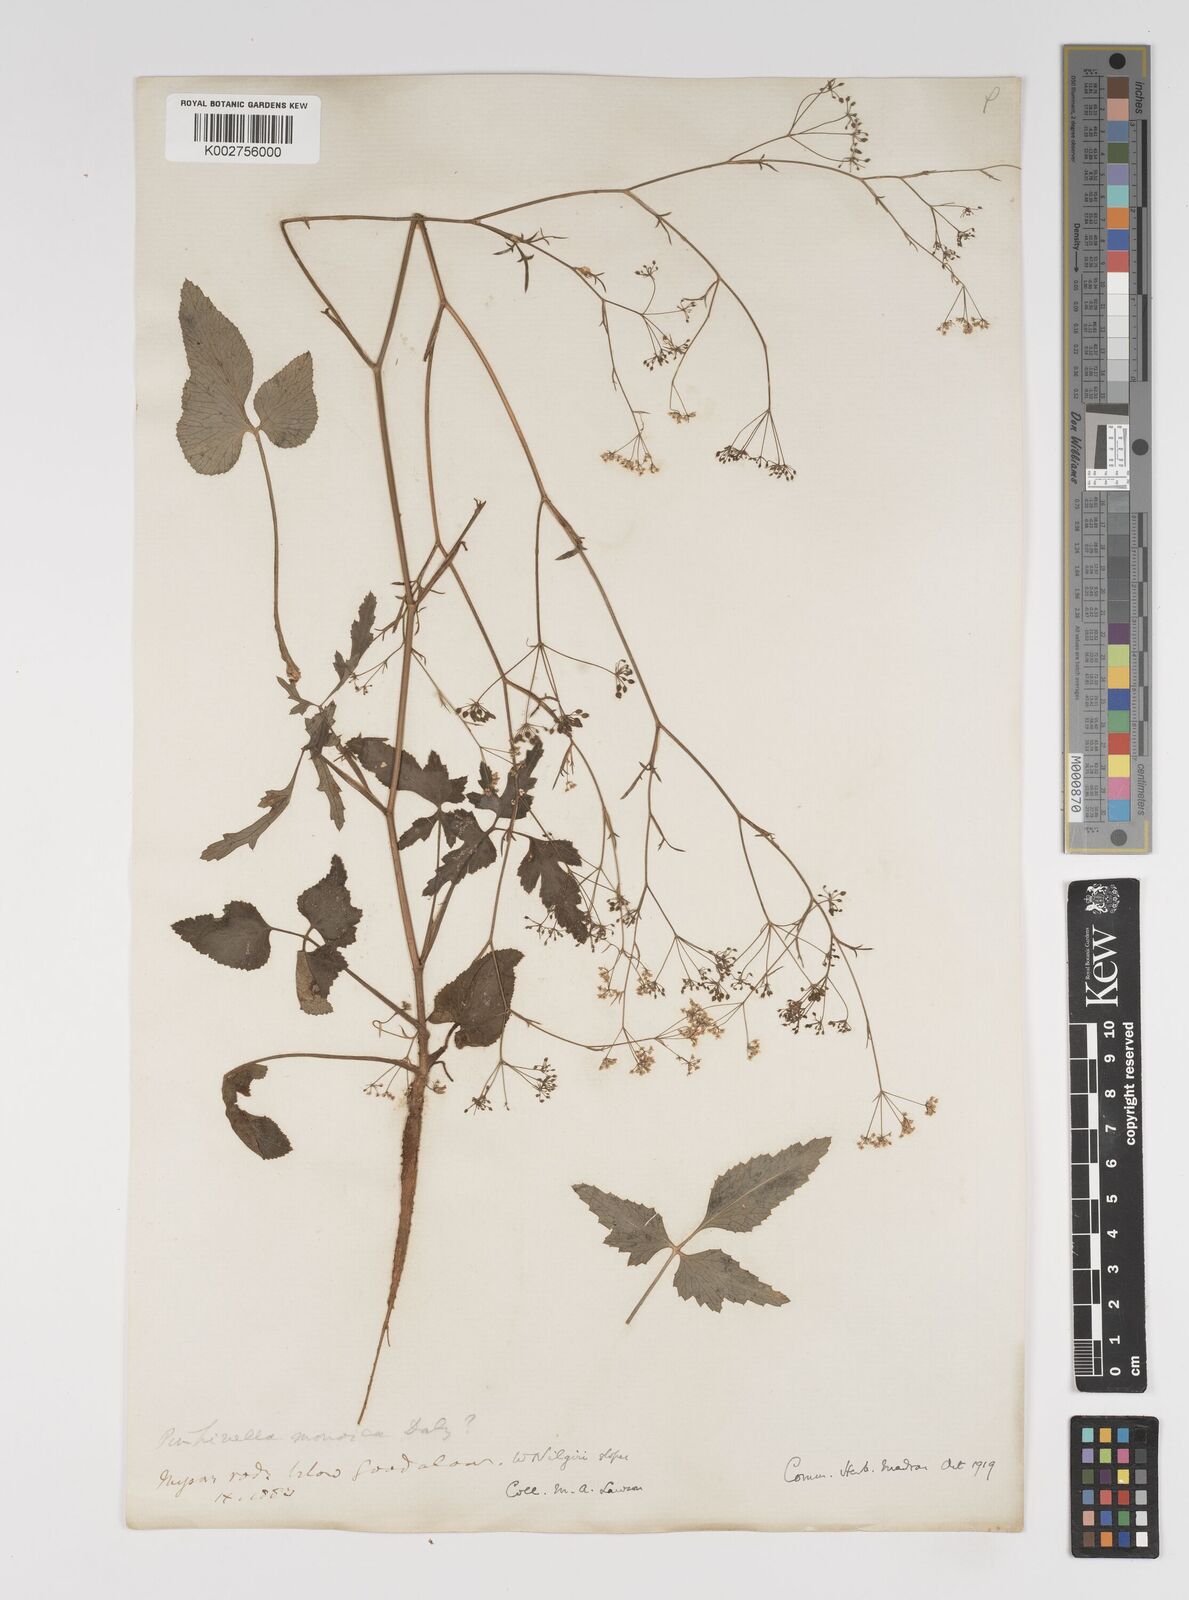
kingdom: Plantae
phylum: Tracheophyta
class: Magnoliopsida
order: Apiales
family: Apiaceae
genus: Pimpinella
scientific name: Pimpinella wallichiana
